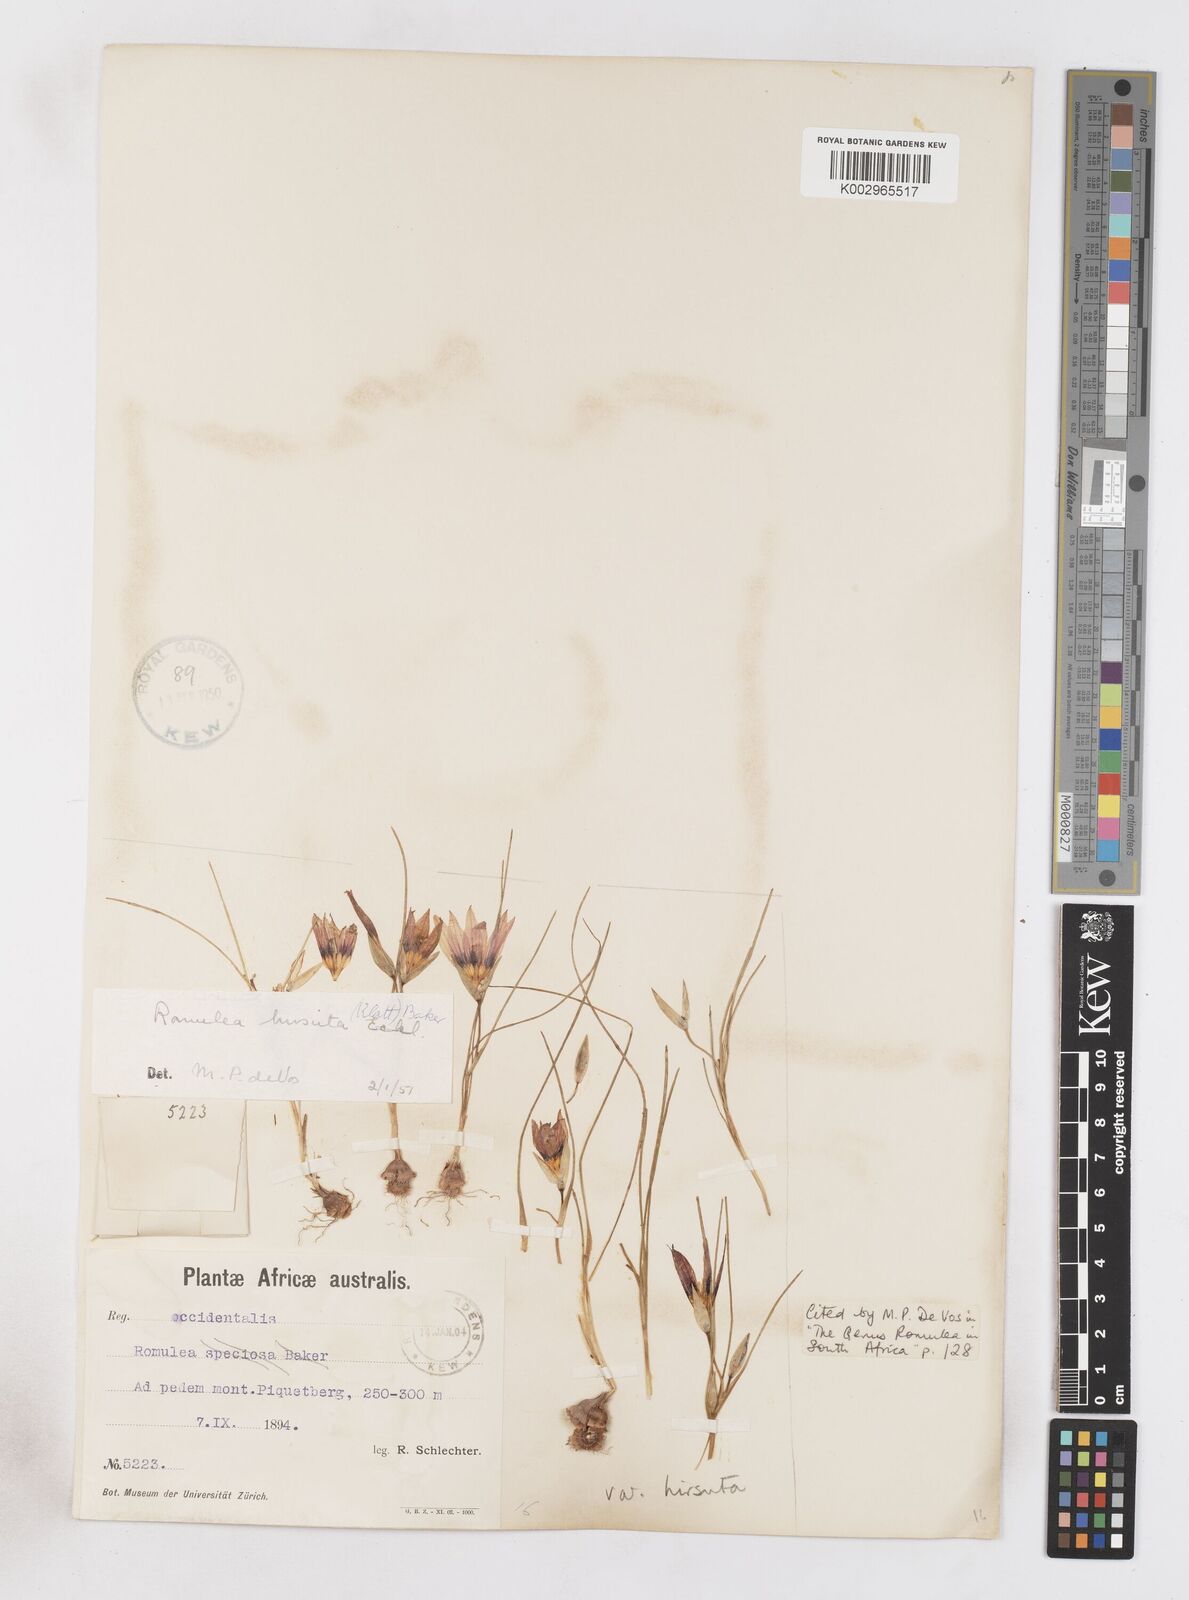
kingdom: Plantae
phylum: Tracheophyta
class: Liliopsida
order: Asparagales
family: Iridaceae
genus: Romulea
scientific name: Romulea hirsuta
